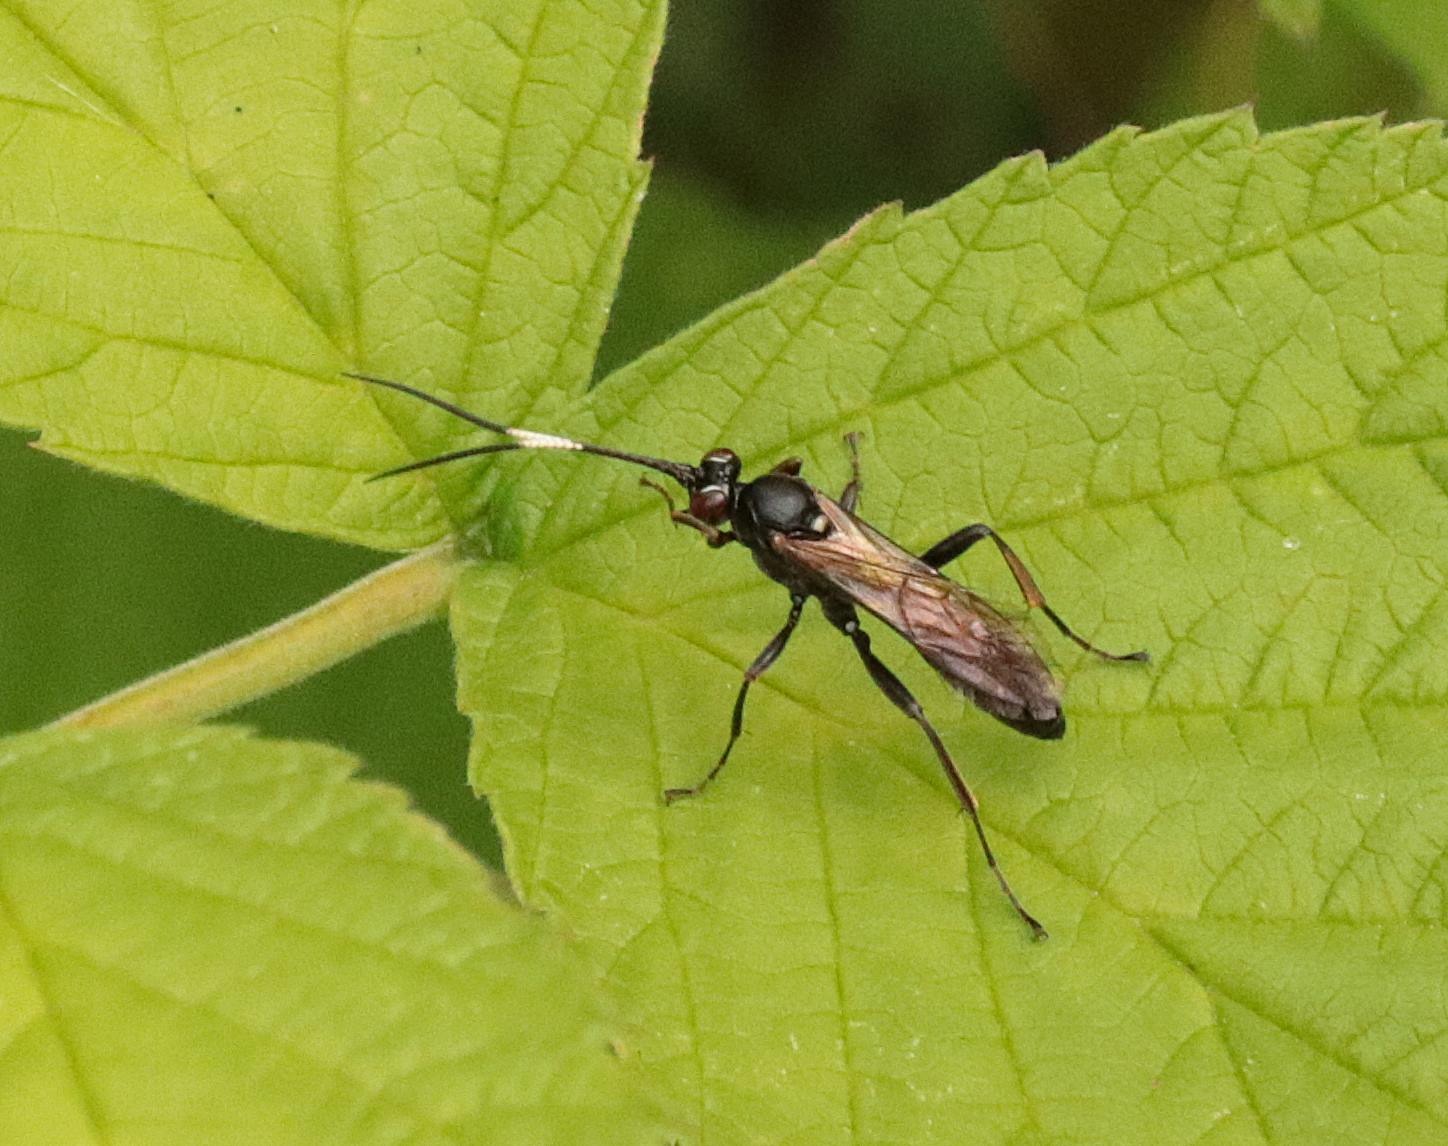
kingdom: Animalia
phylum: Arthropoda
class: Insecta
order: Hymenoptera
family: Ichneumonidae
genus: Hepiopelmus
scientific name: Hepiopelmus melanogaster
